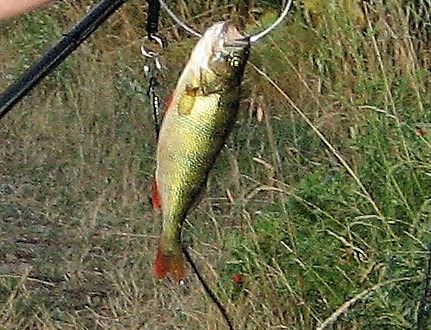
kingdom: Animalia
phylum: Chordata
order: Perciformes
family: Percidae
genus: Perca
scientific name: Perca fluviatilis
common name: Aborre
